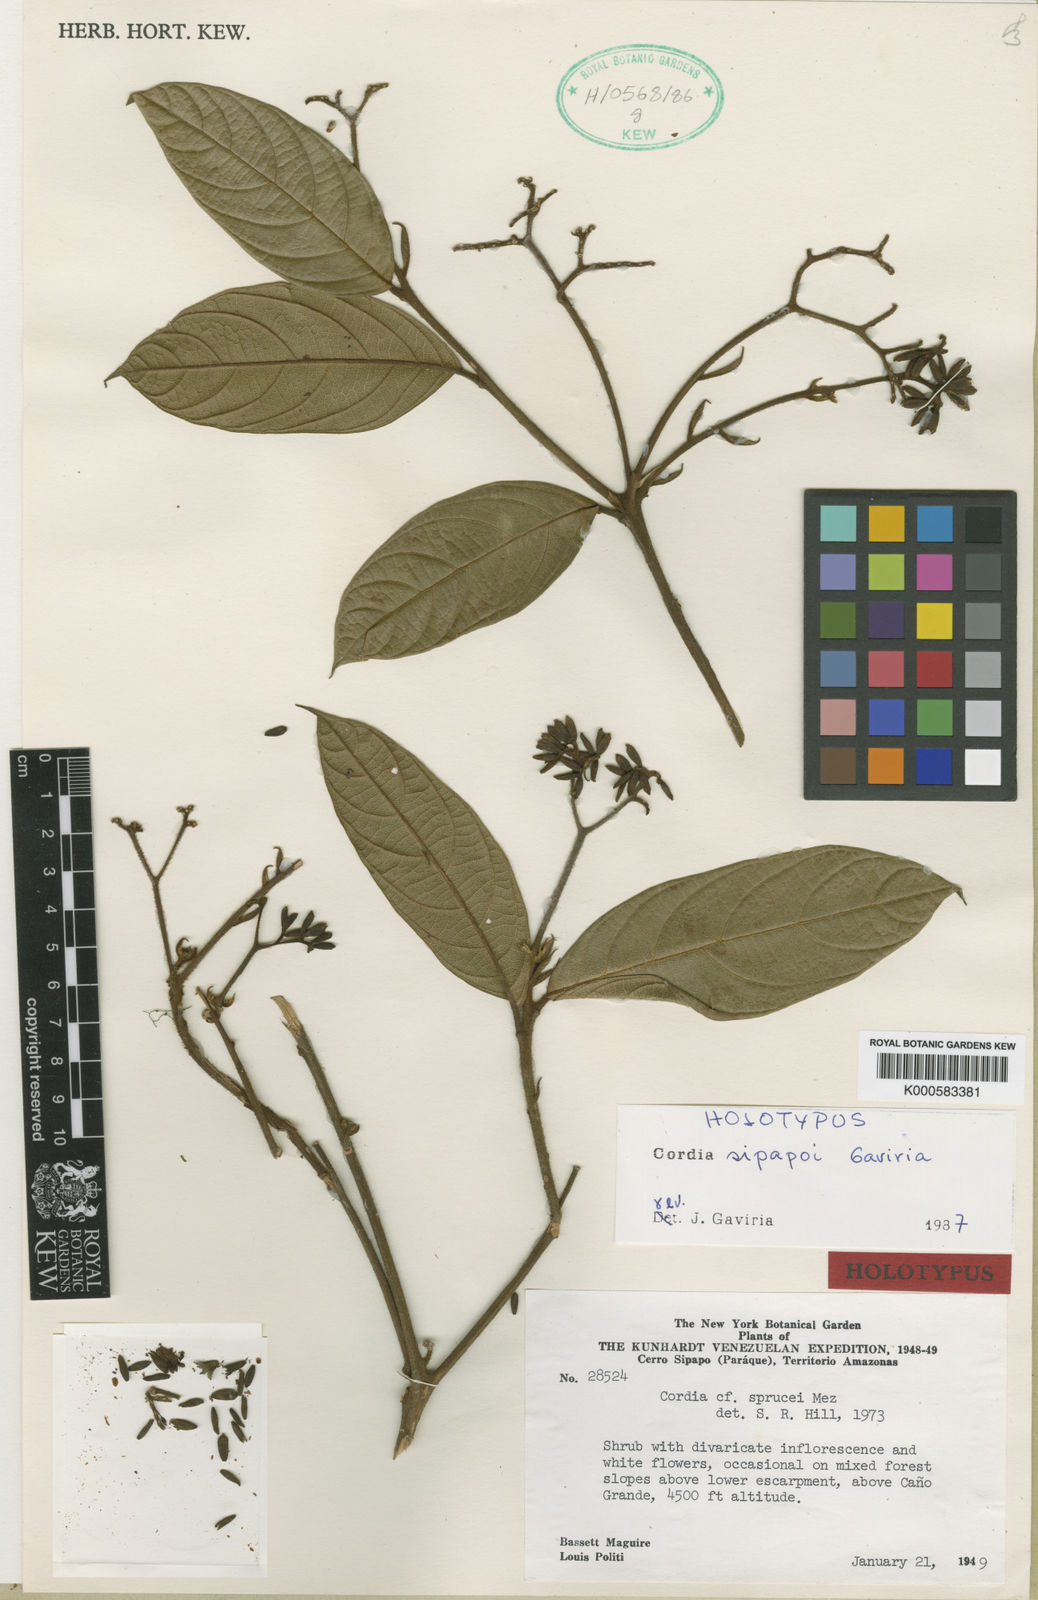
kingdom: Plantae
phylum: Tracheophyta
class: Magnoliopsida
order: Boraginales
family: Cordiaceae
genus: Cordia
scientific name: Cordia sipapoi
